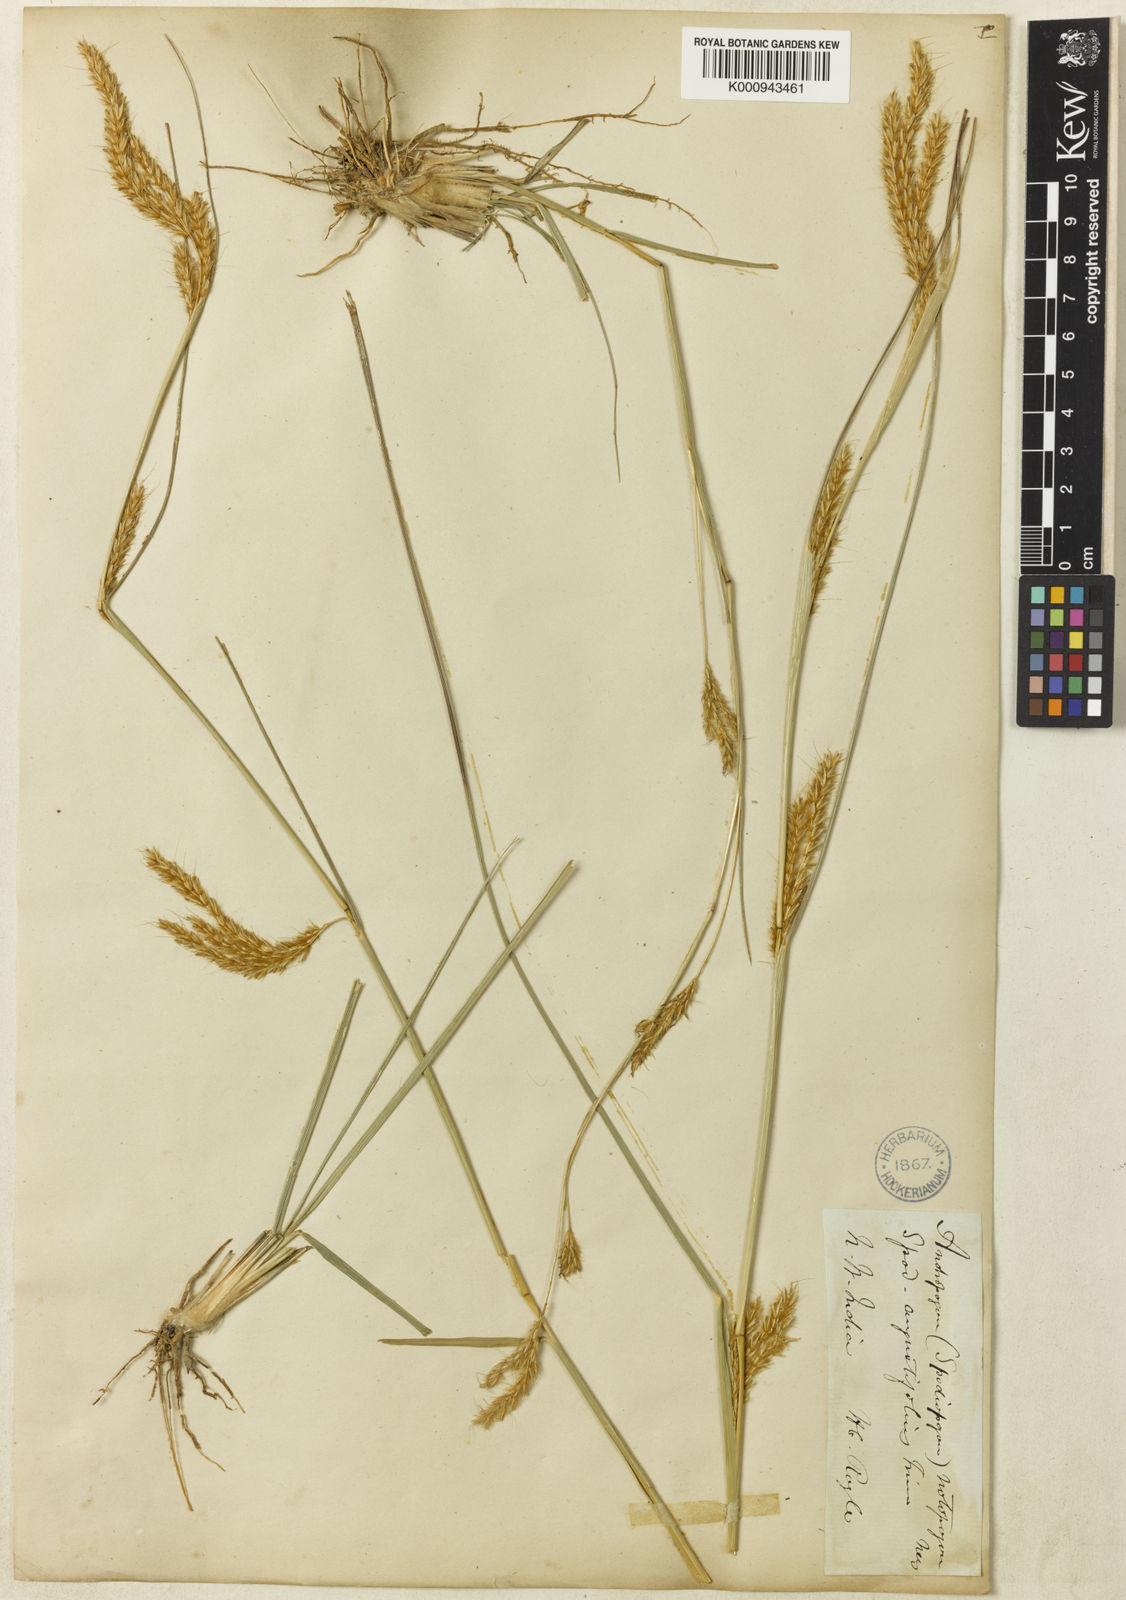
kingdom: Plantae
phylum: Tracheophyta
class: Liliopsida
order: Poales
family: Poaceae
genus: Eulaliopsis
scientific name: Eulaliopsis binata
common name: Baib grass
